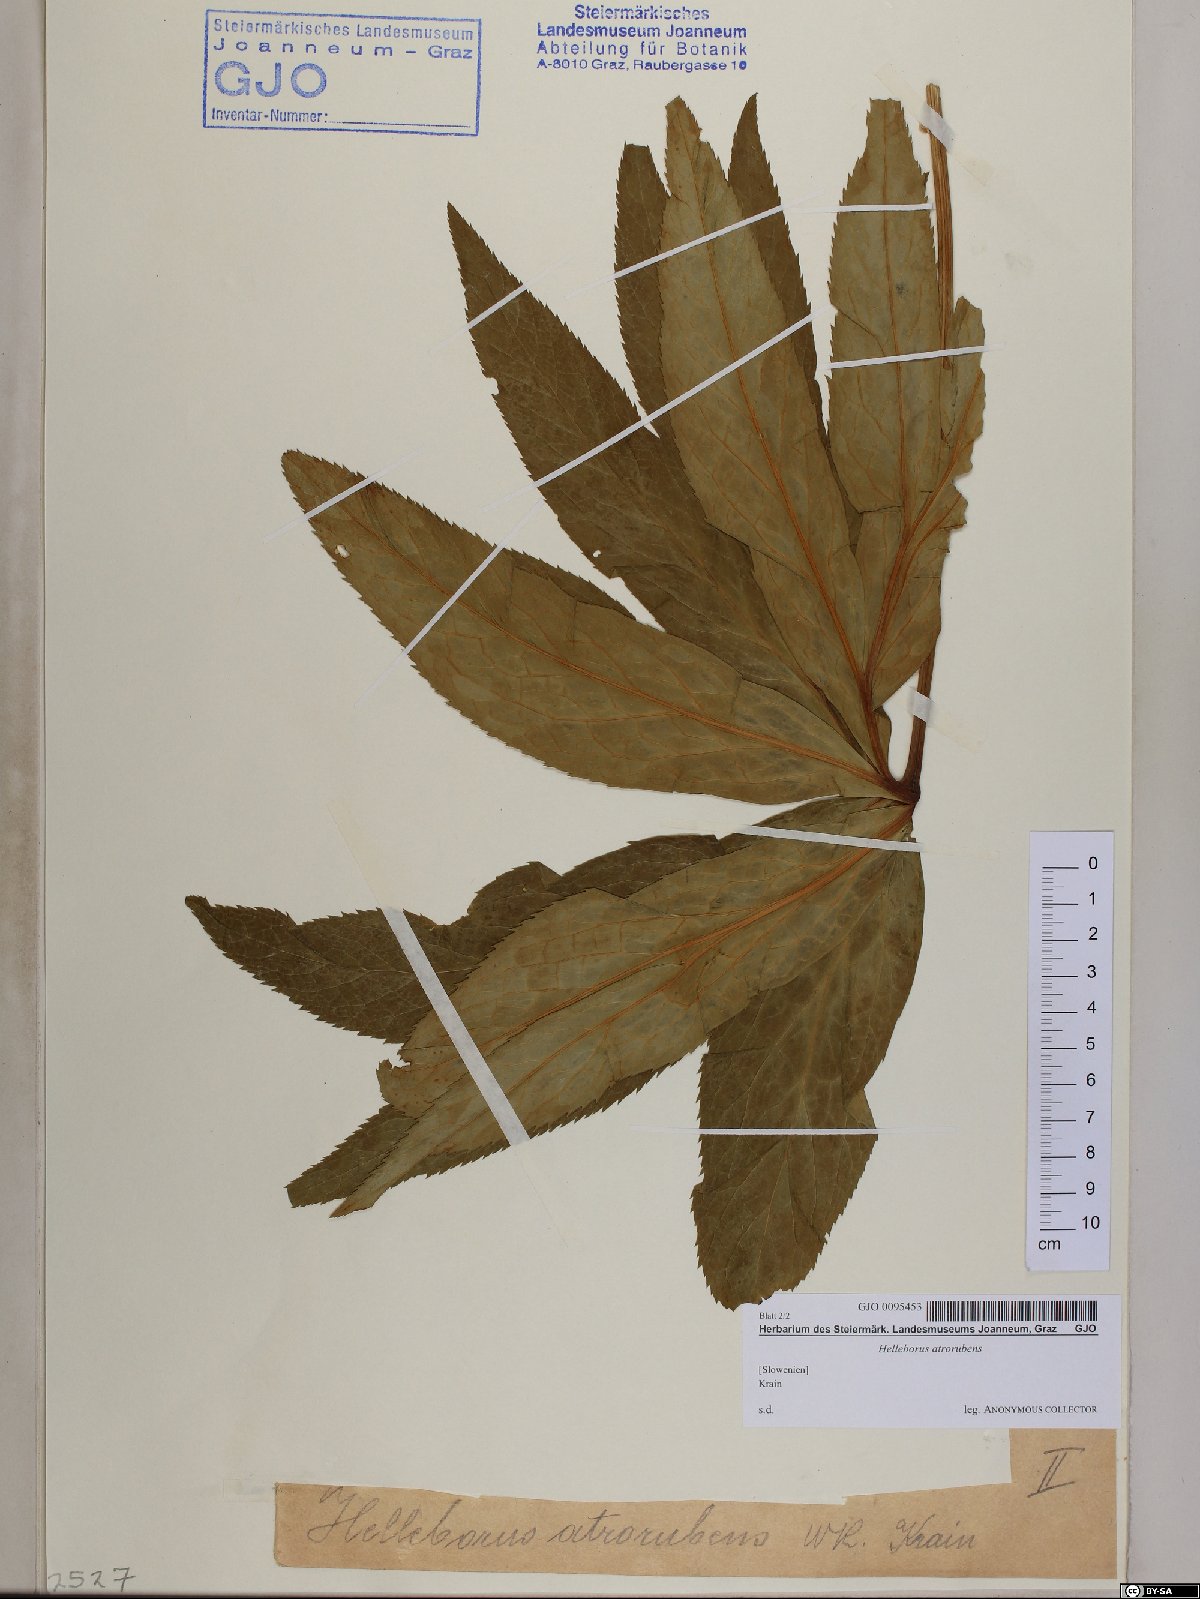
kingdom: Plantae
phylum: Tracheophyta
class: Magnoliopsida
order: Ranunculales
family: Ranunculaceae
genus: Helleborus
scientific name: Helleborus dumetorum
